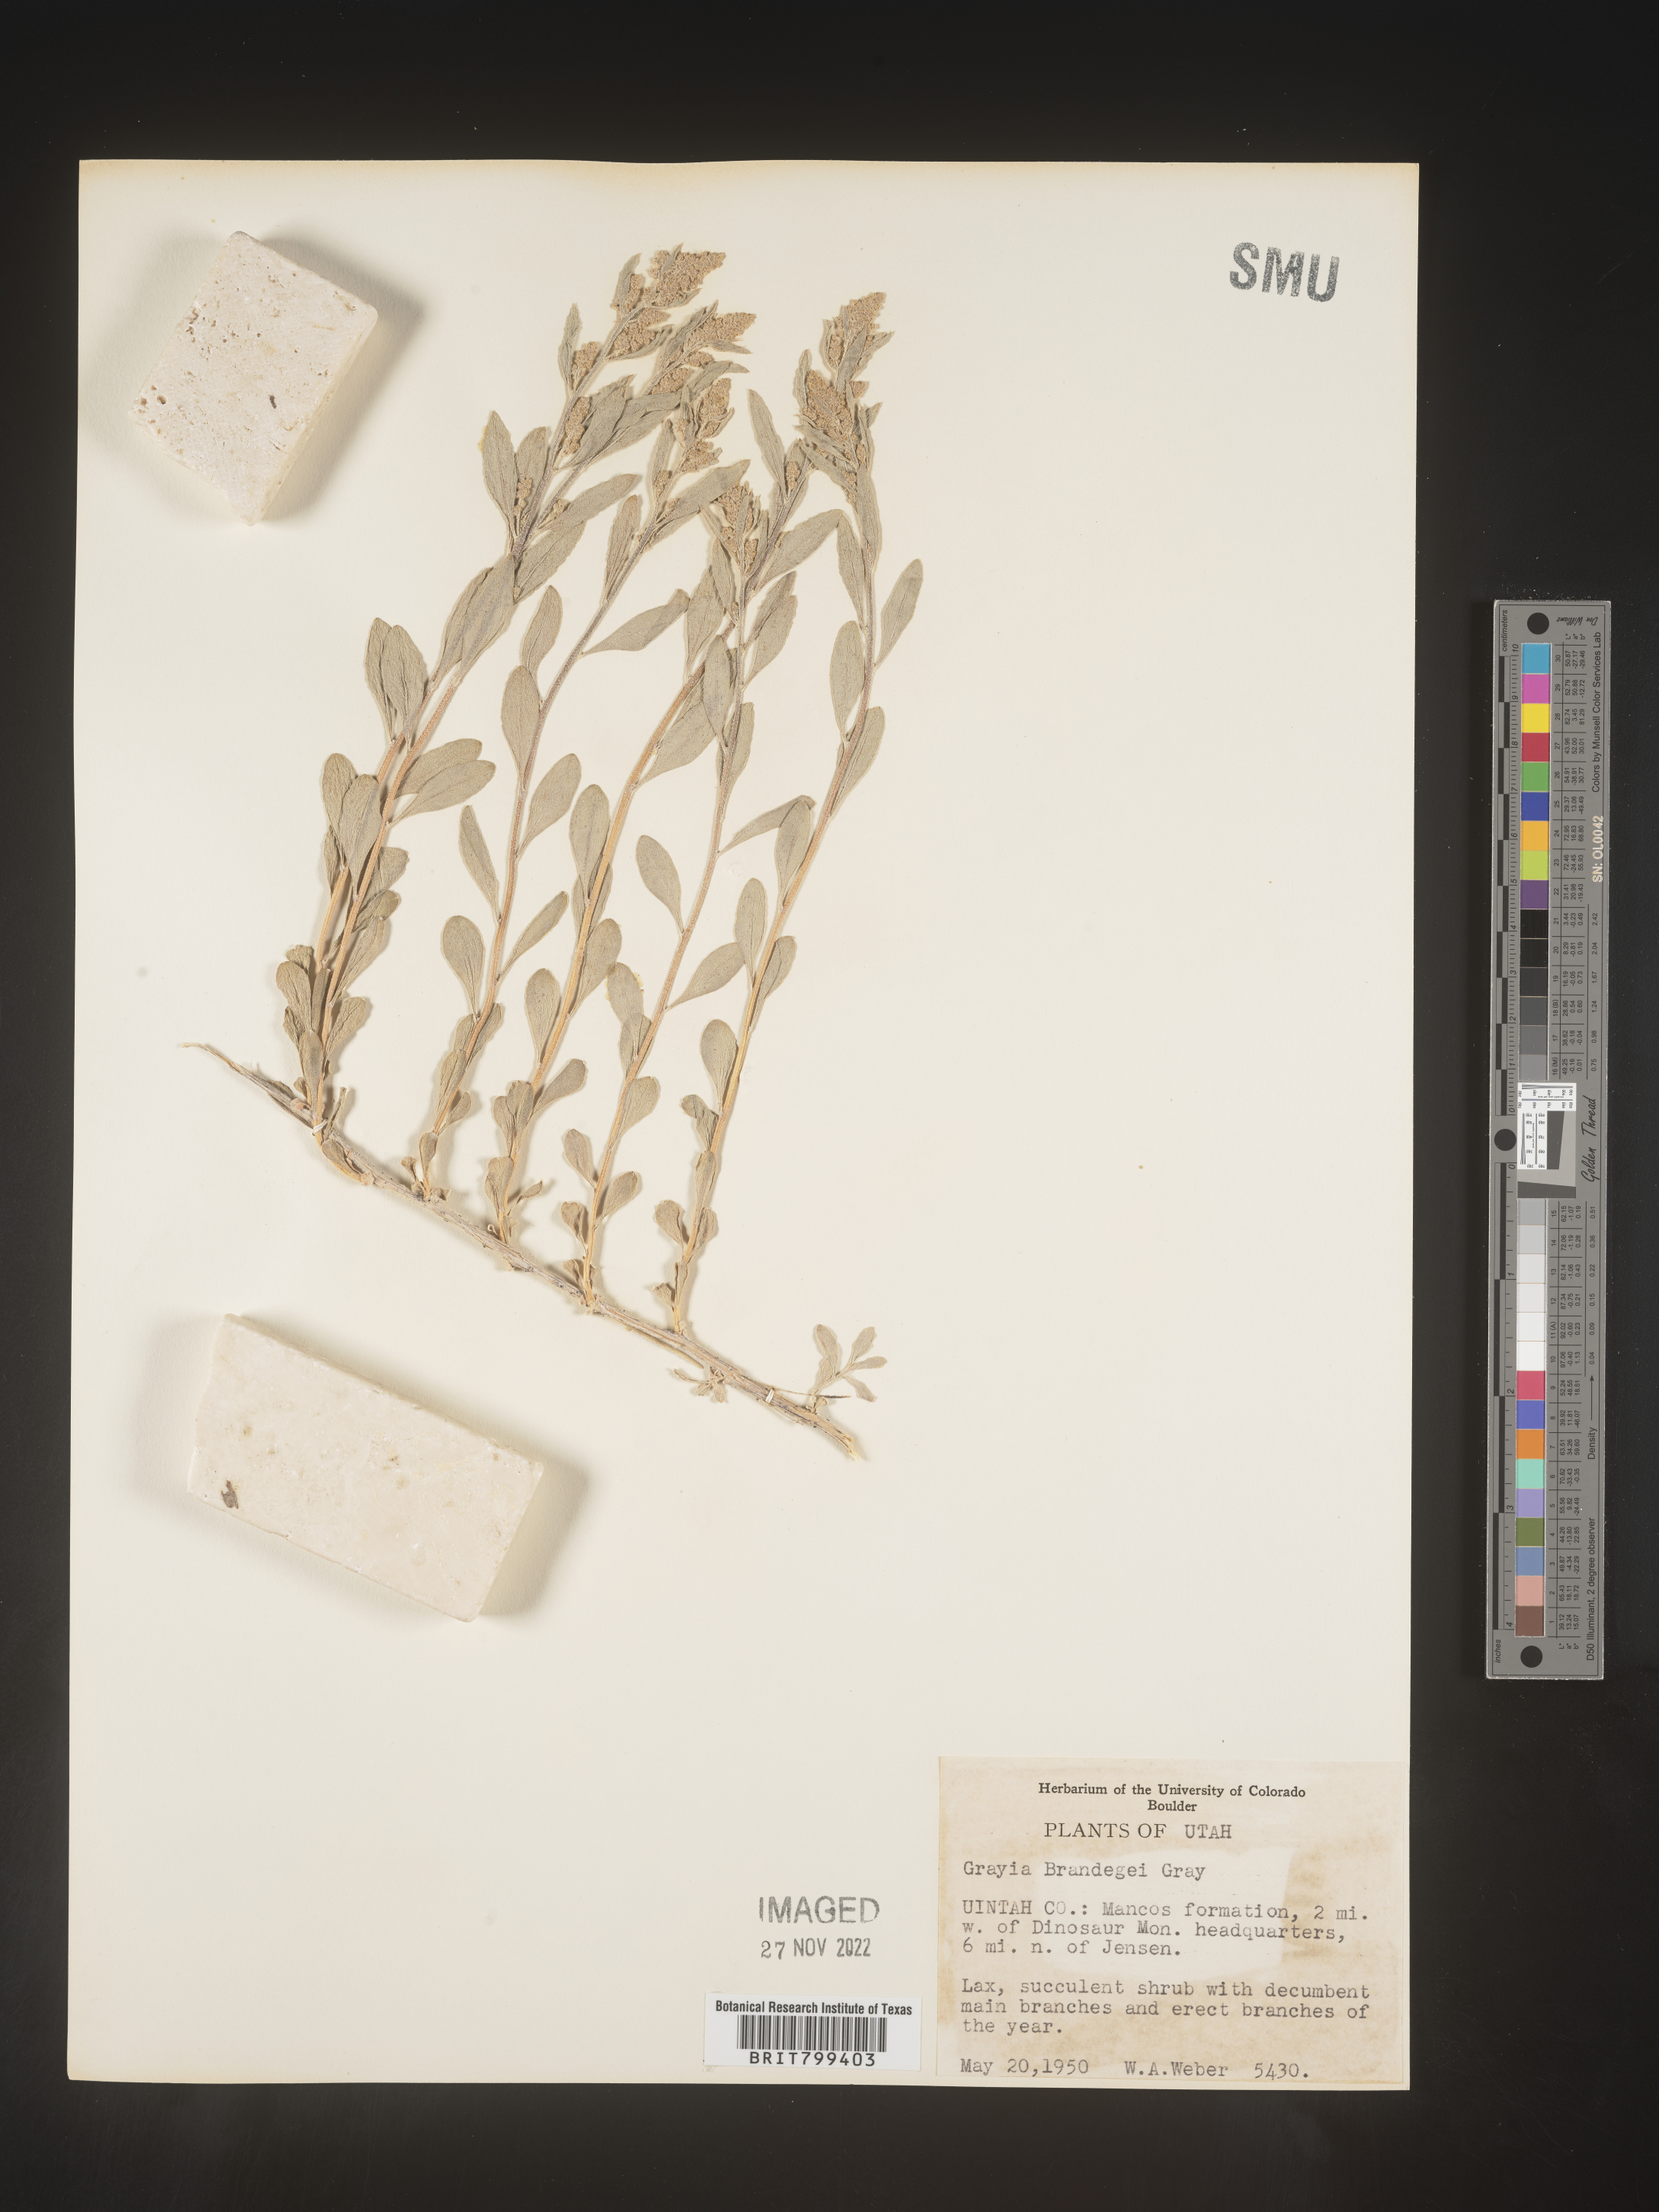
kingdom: Plantae
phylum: Tracheophyta
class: Magnoliopsida
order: Caryophyllales
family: Amaranthaceae
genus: Grayia
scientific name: Grayia brandegeei
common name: Brandegee's siltbush
